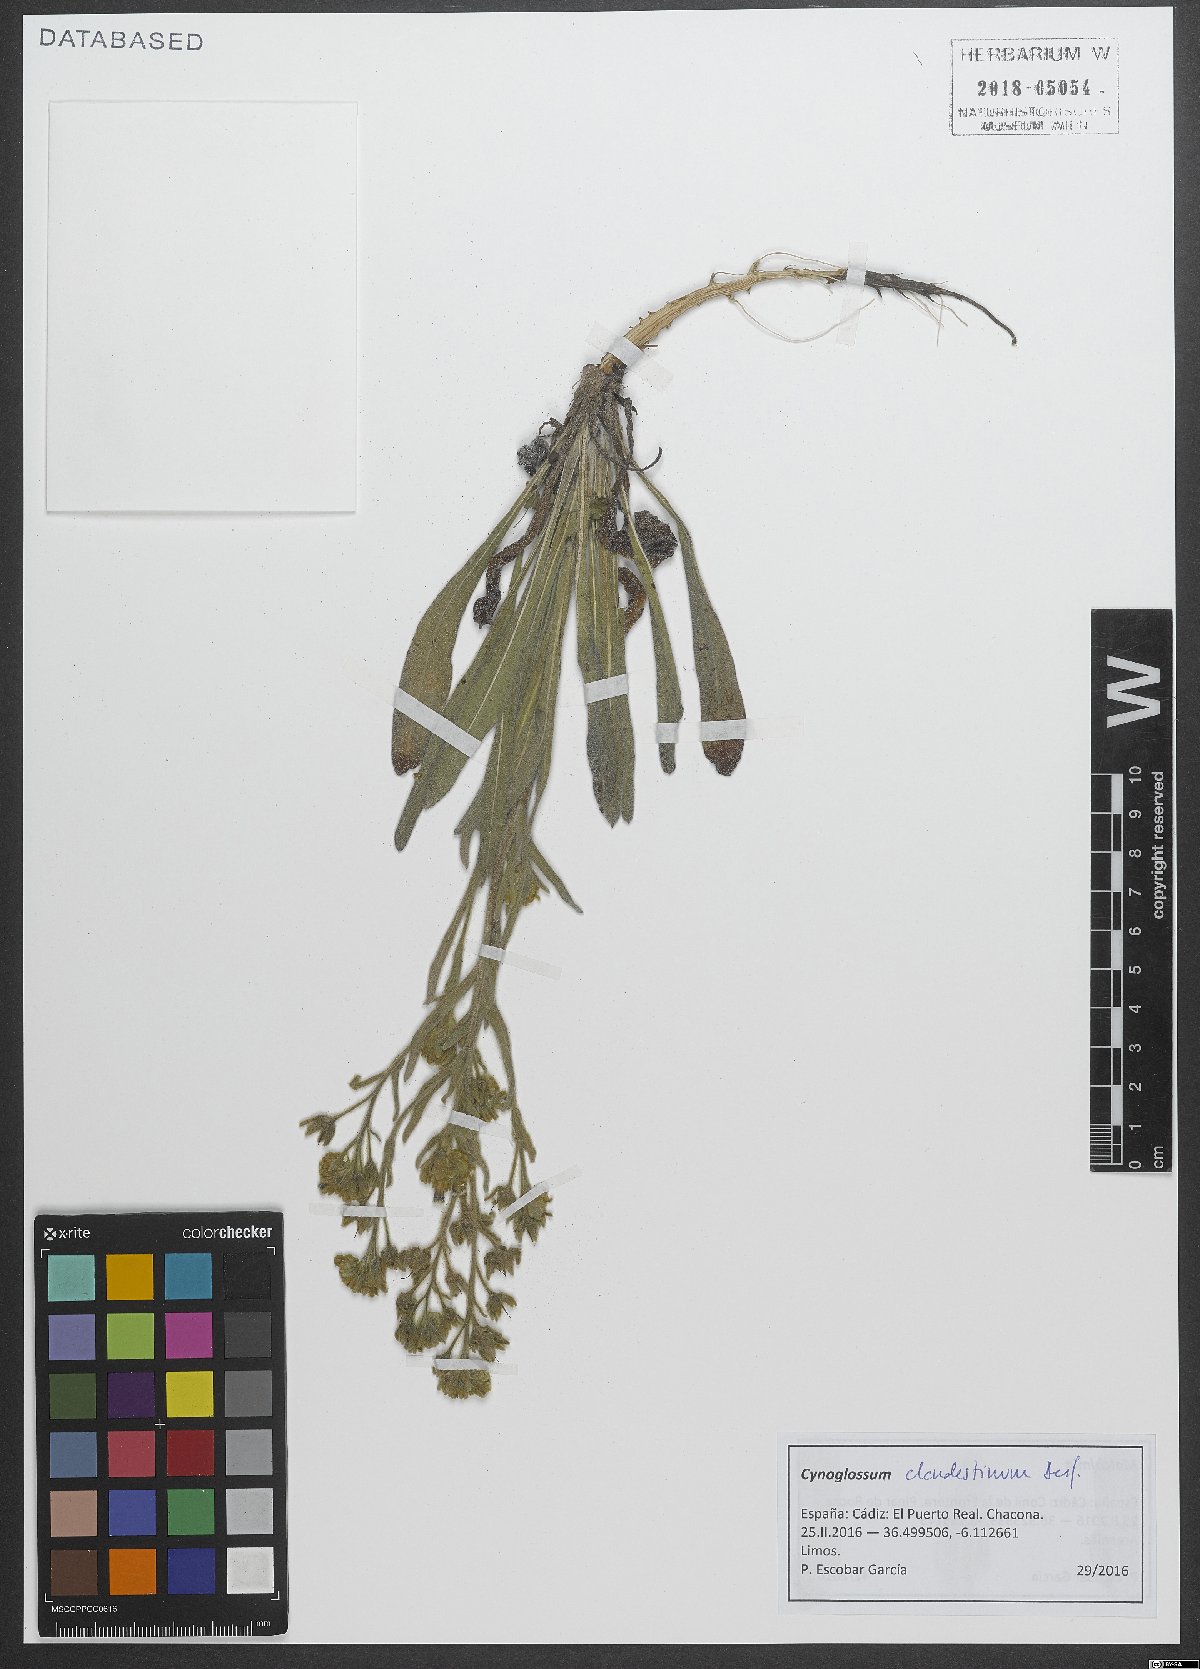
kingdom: Plantae
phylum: Tracheophyta
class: Magnoliopsida
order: Boraginales
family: Boraginaceae
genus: Cynoglossum
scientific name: Cynoglossum clandestinum
